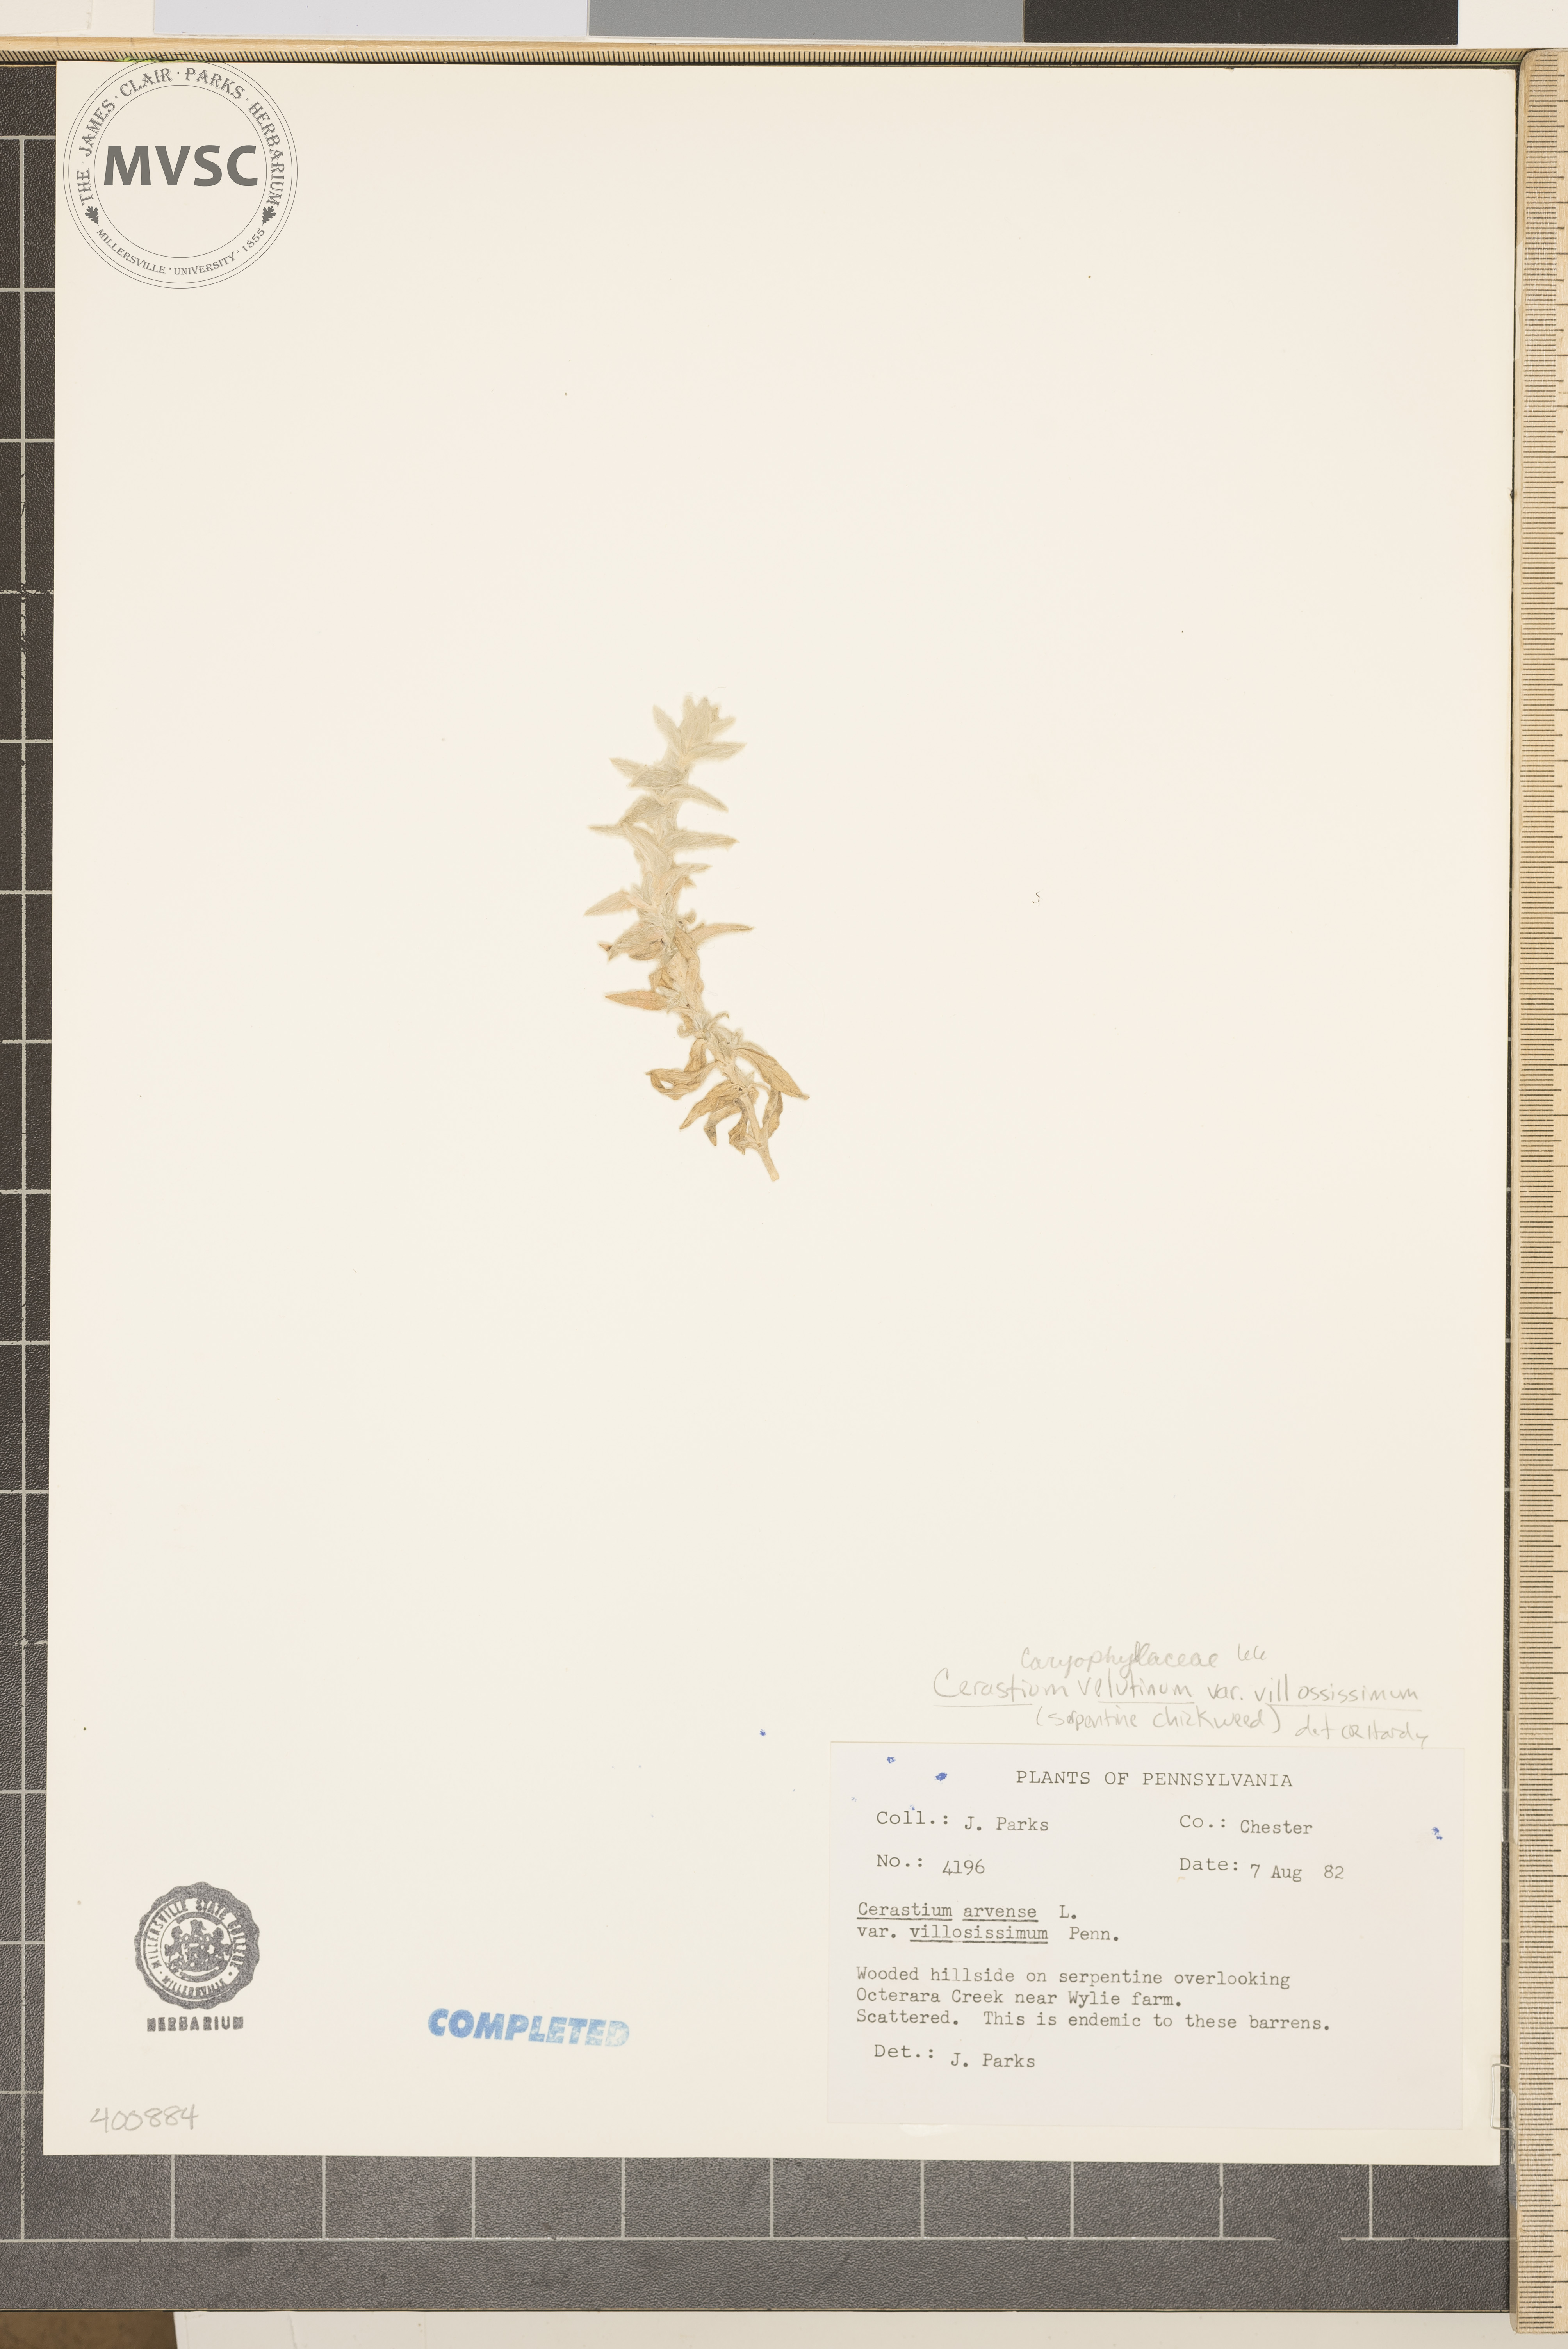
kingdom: Plantae
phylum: Tracheophyta
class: Magnoliopsida
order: Caryophyllales
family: Caryophyllaceae
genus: Cerastium
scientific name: Cerastium velutinum
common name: barren chickweed
